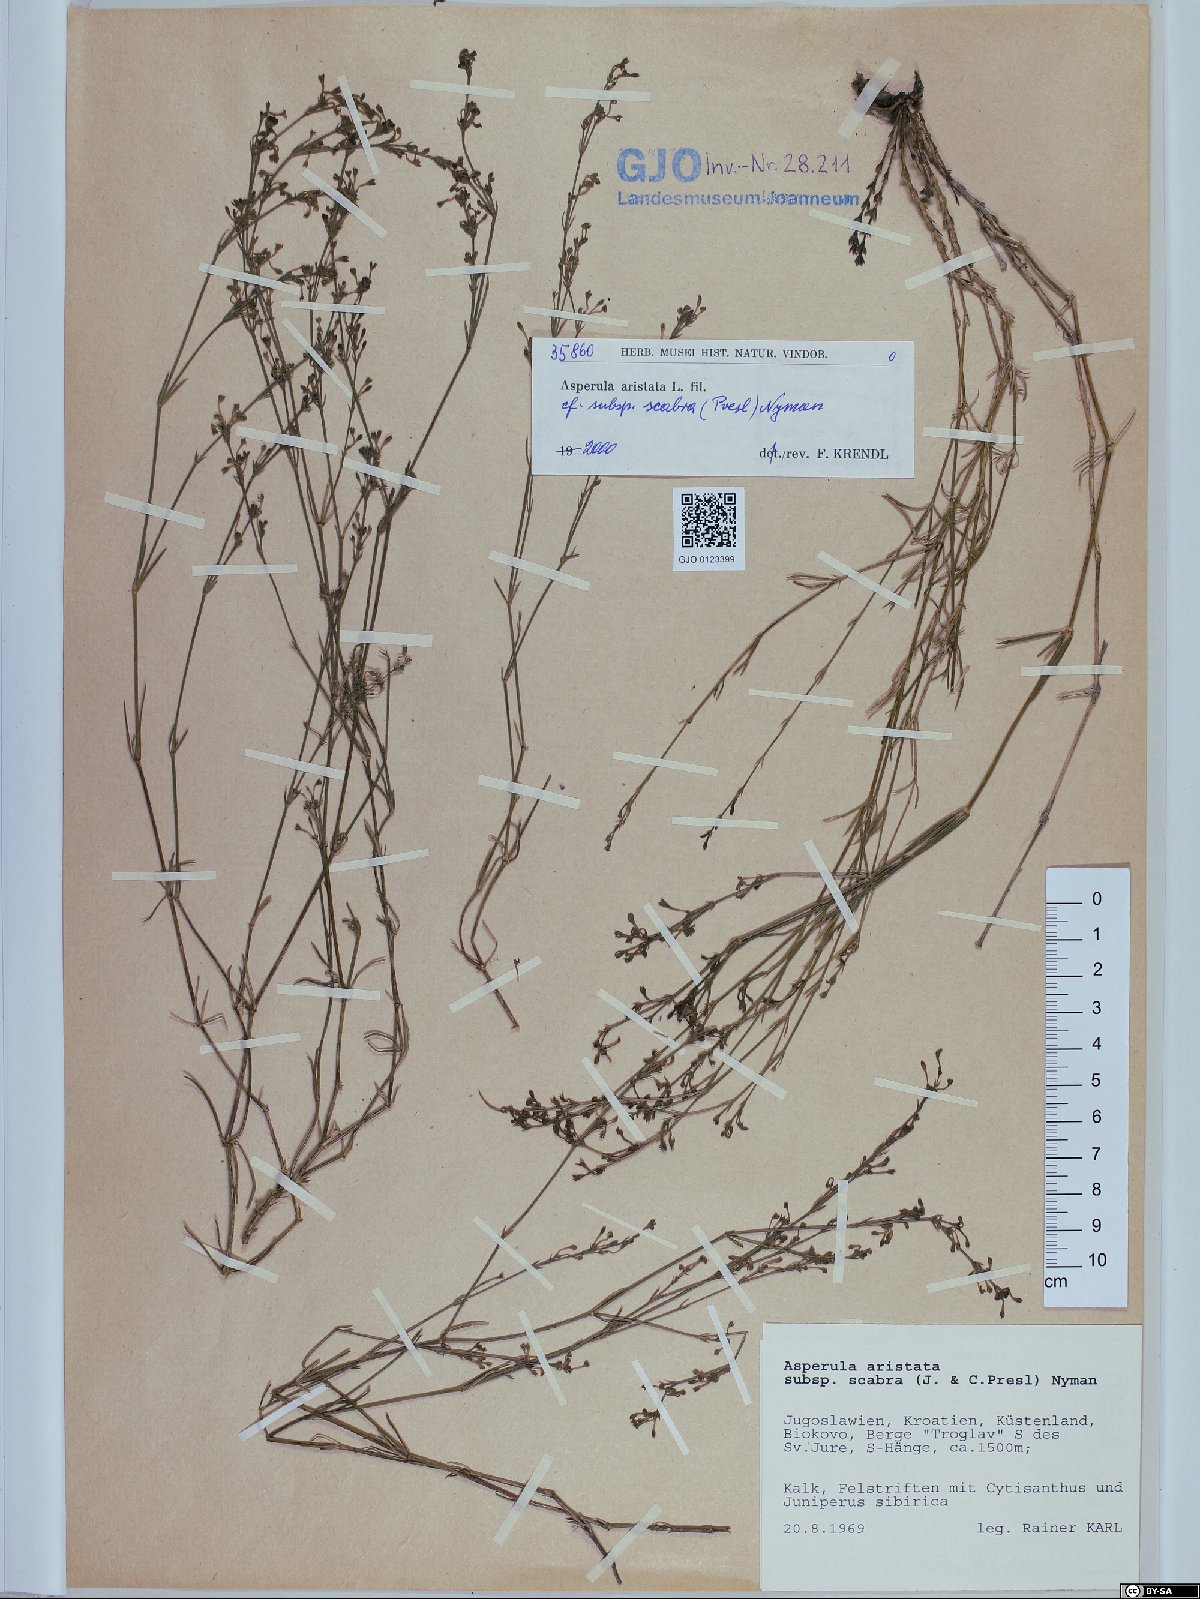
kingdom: Plantae
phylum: Tracheophyta
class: Magnoliopsida
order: Gentianales
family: Rubiaceae
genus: Cynanchica
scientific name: Cynanchica aristata
